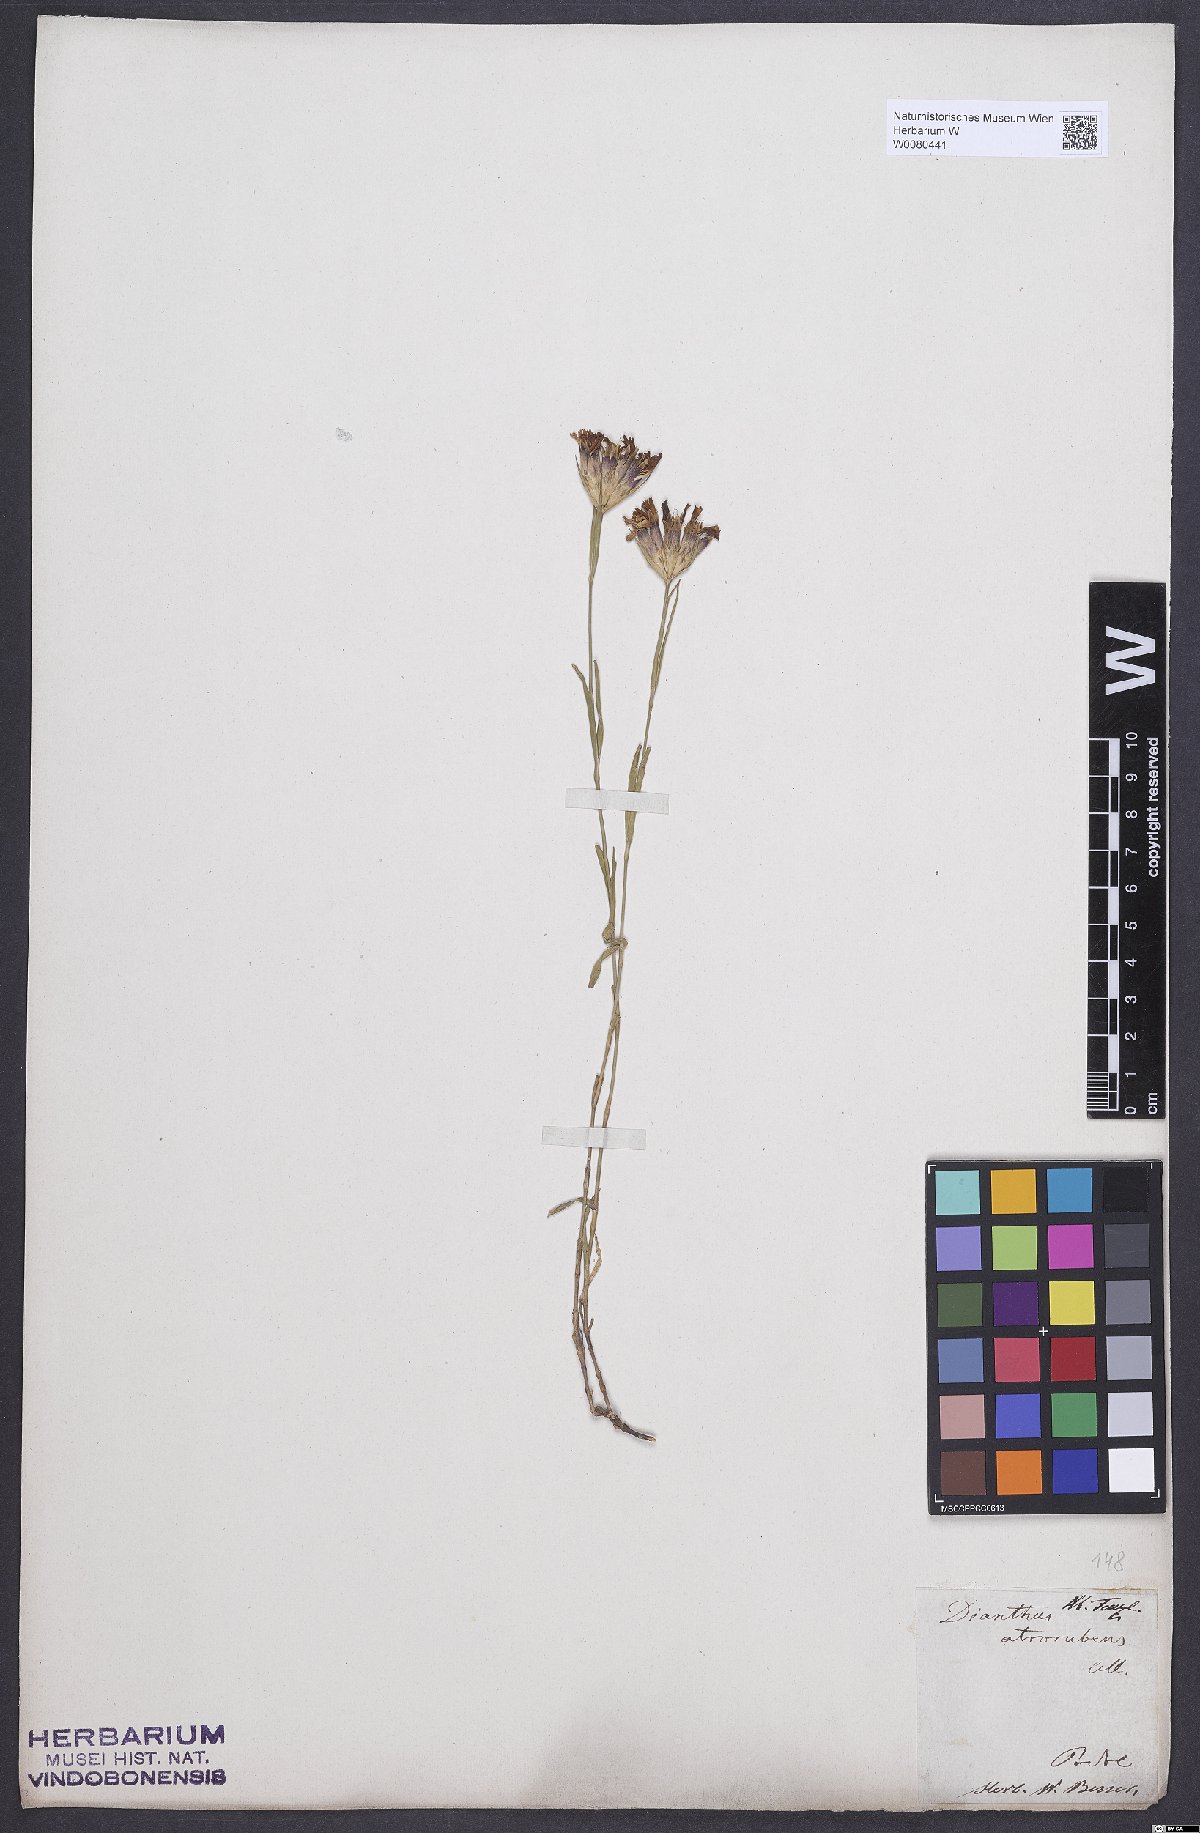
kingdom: Plantae
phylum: Tracheophyta
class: Magnoliopsida
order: Caryophyllales
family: Caryophyllaceae
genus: Dianthus
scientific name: Dianthus carthusianorum
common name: Carthusian pink
